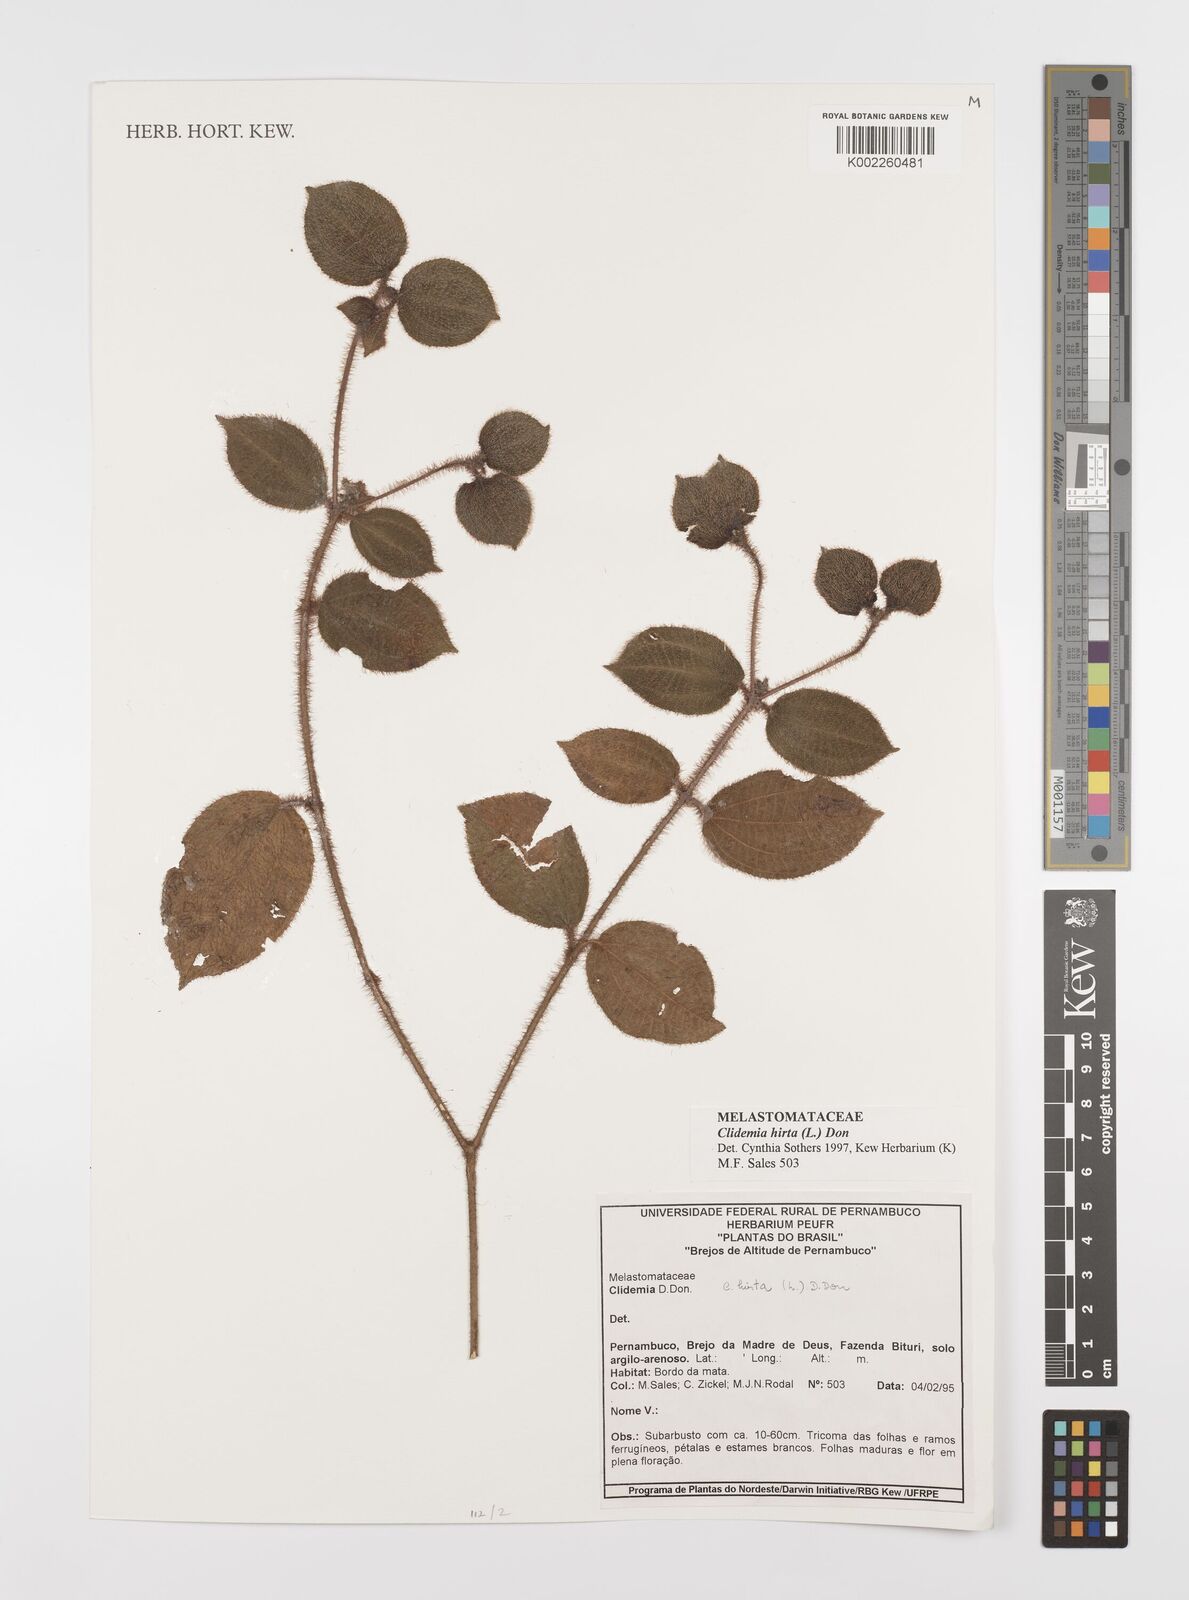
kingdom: Plantae
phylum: Tracheophyta
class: Magnoliopsida
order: Myrtales
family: Melastomataceae
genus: Miconia
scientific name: Miconia crenata
